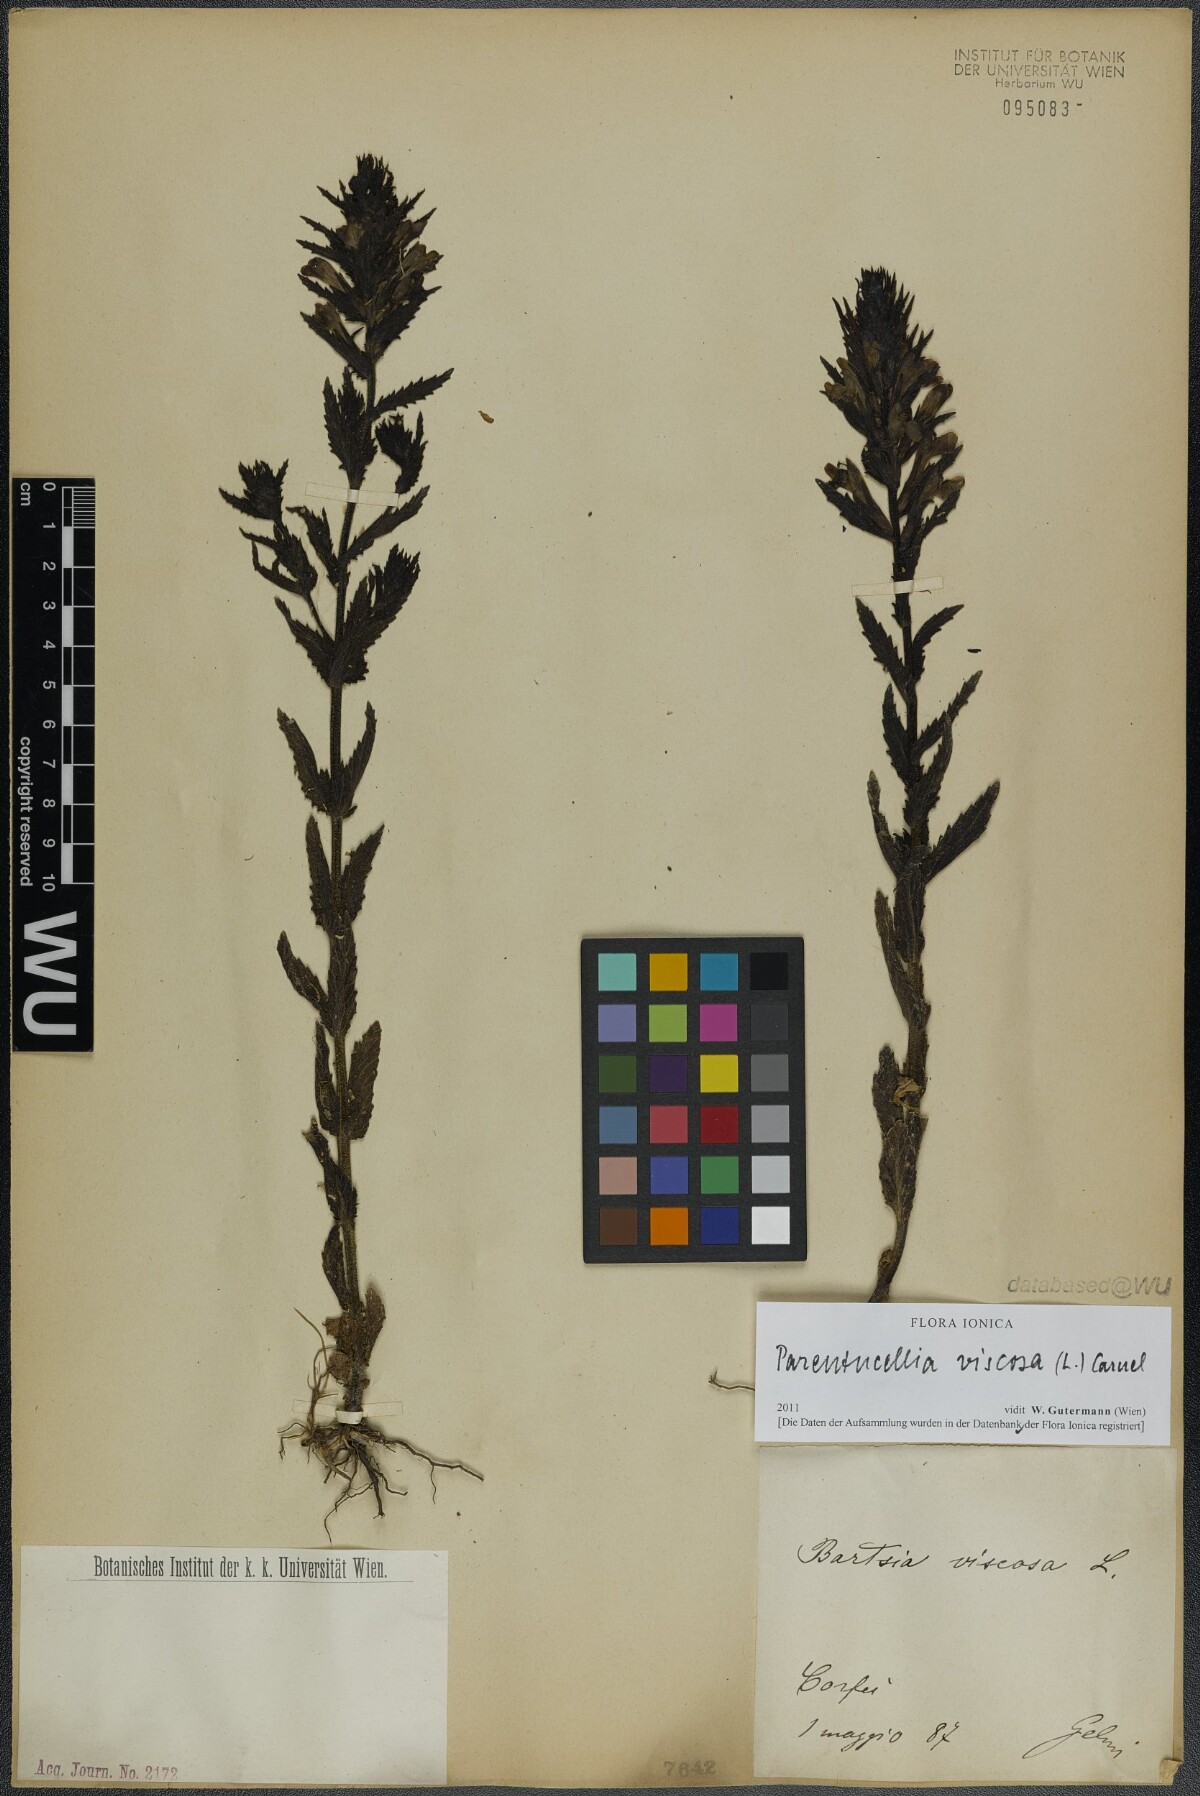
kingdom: Plantae
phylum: Tracheophyta
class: Magnoliopsida
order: Lamiales
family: Orobanchaceae
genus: Bellardia
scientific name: Bellardia viscosa
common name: Sticky parentucellia
